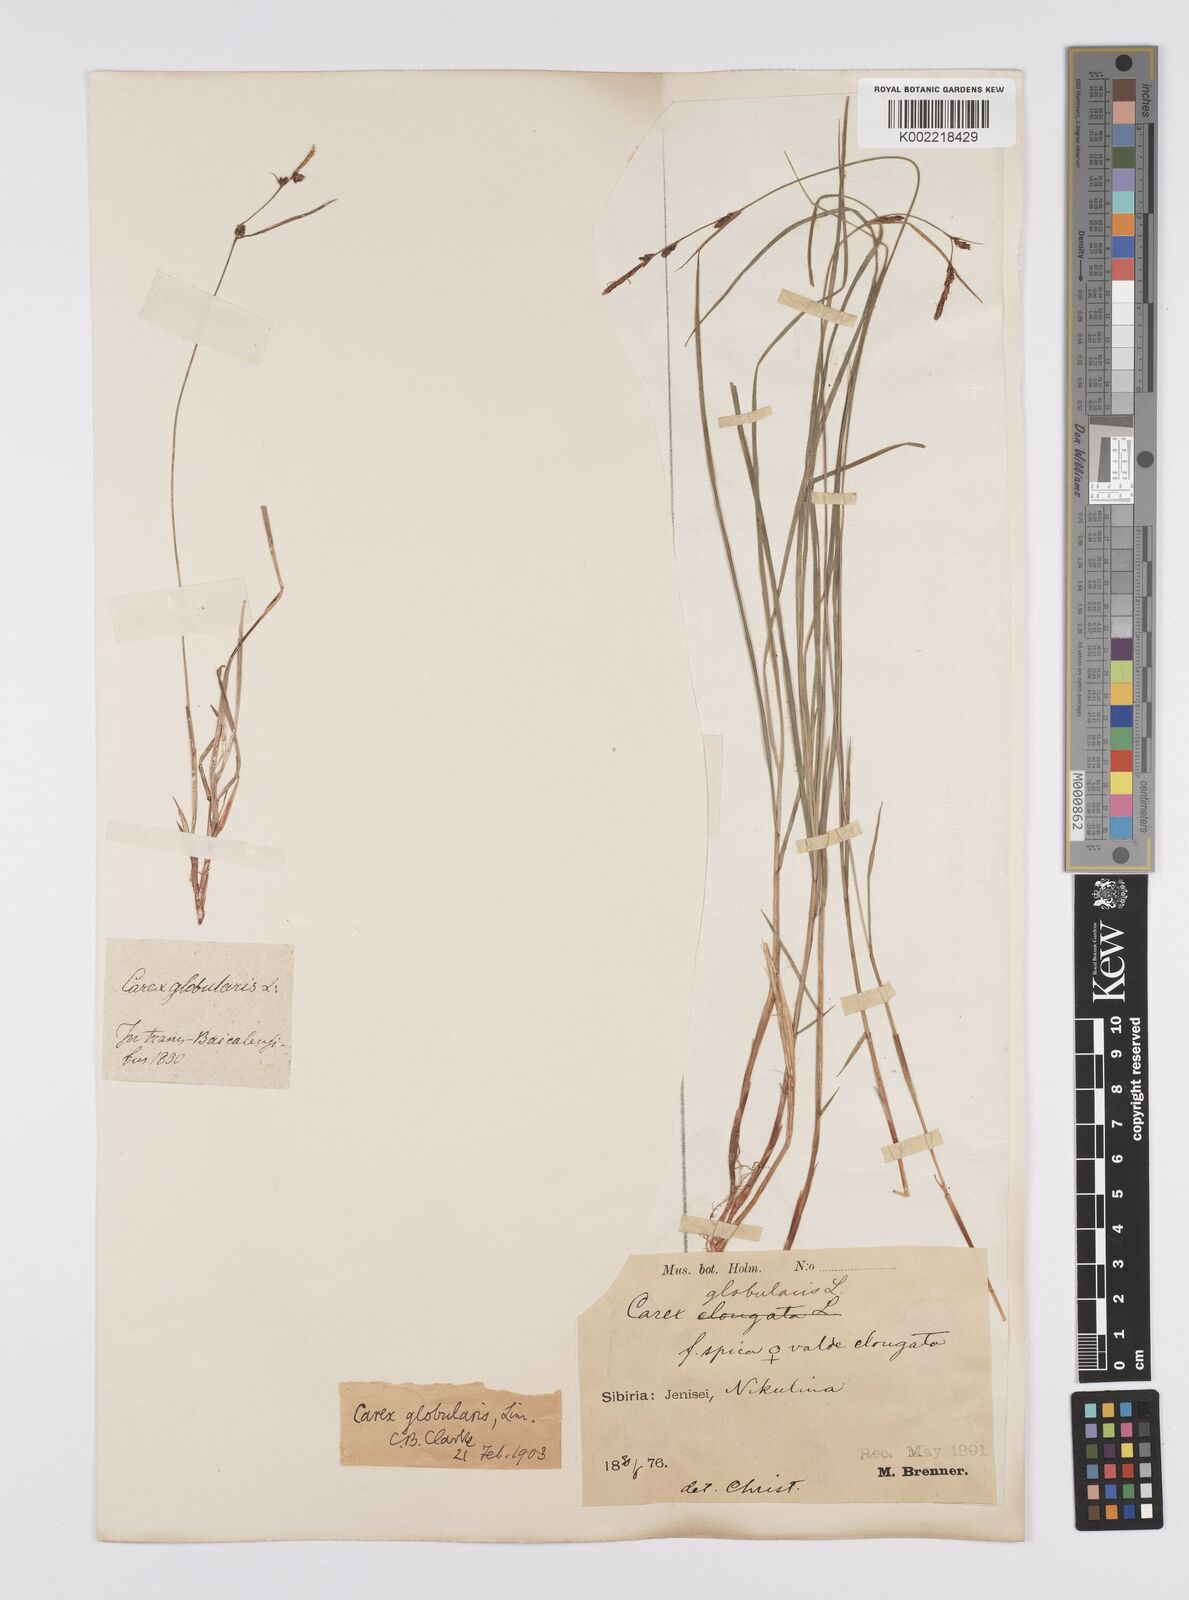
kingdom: Plantae
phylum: Tracheophyta
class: Liliopsida
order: Poales
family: Cyperaceae
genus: Carex
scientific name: Carex globularis
